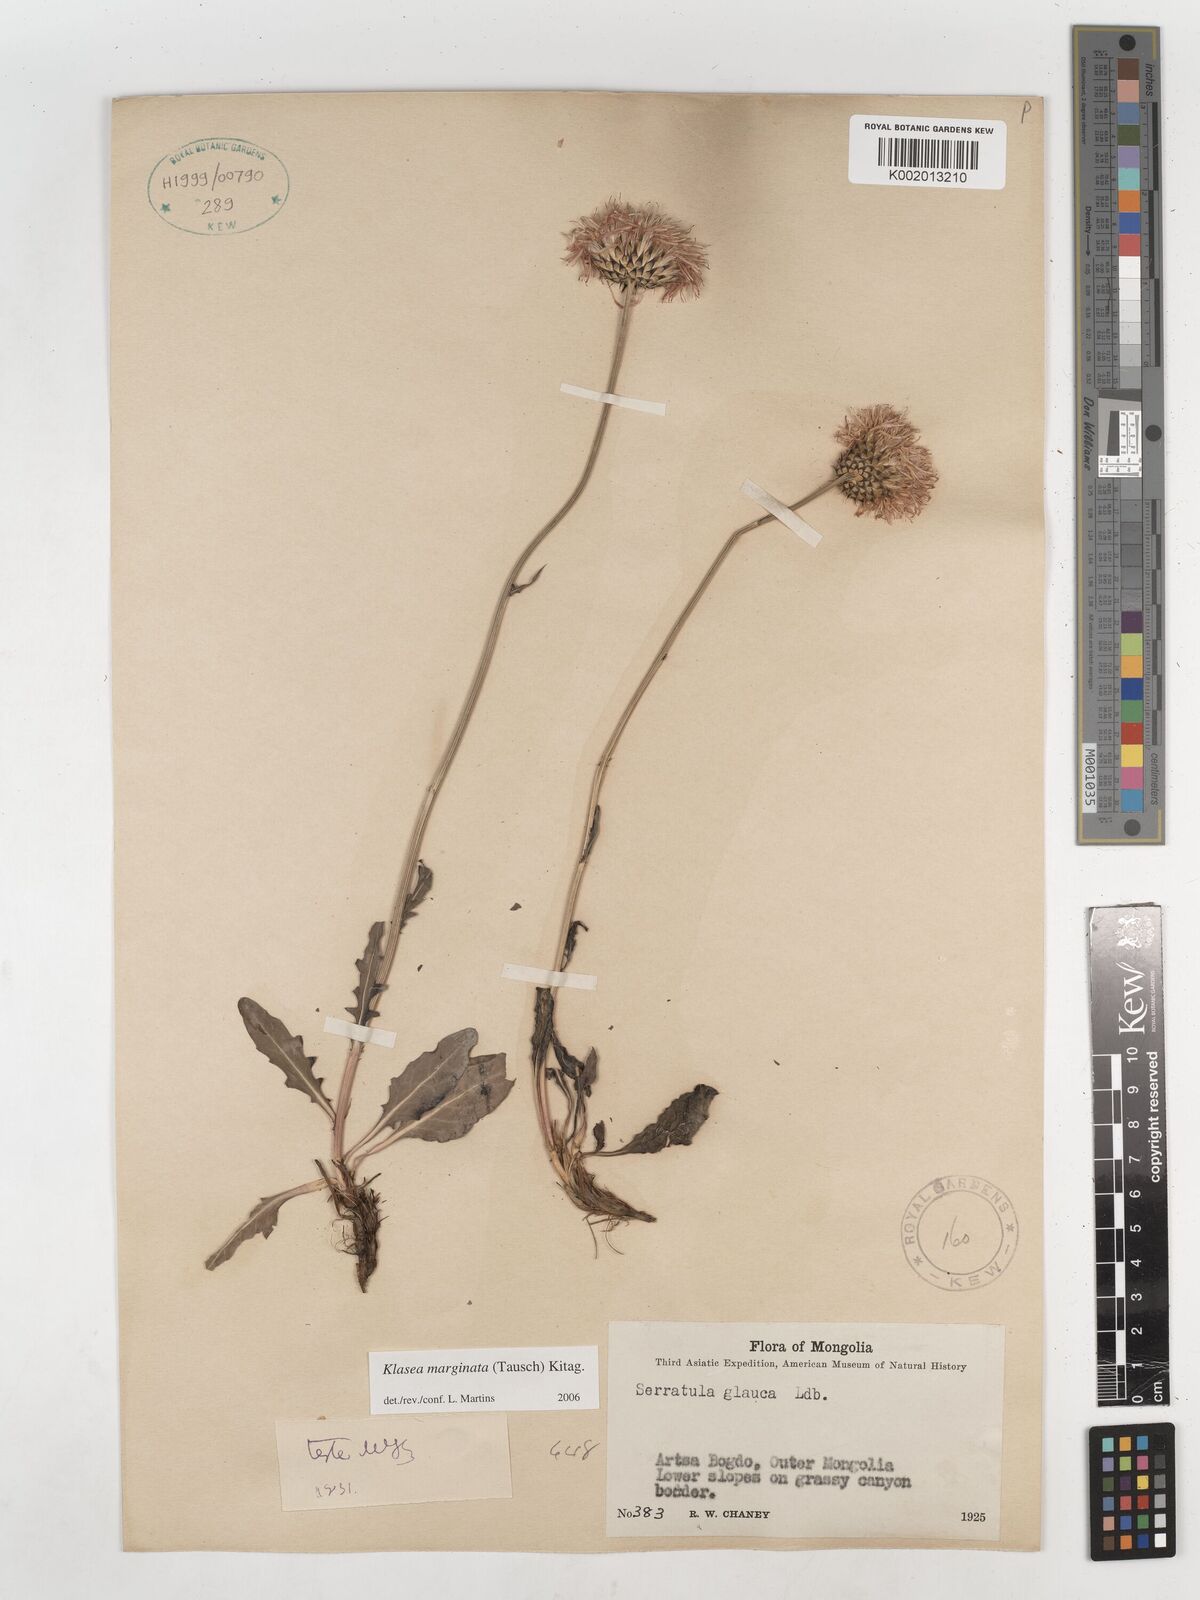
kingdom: Plantae
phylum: Tracheophyta
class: Magnoliopsida
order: Asterales
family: Asteraceae
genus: Vernonia
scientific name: Vernonia glauca
